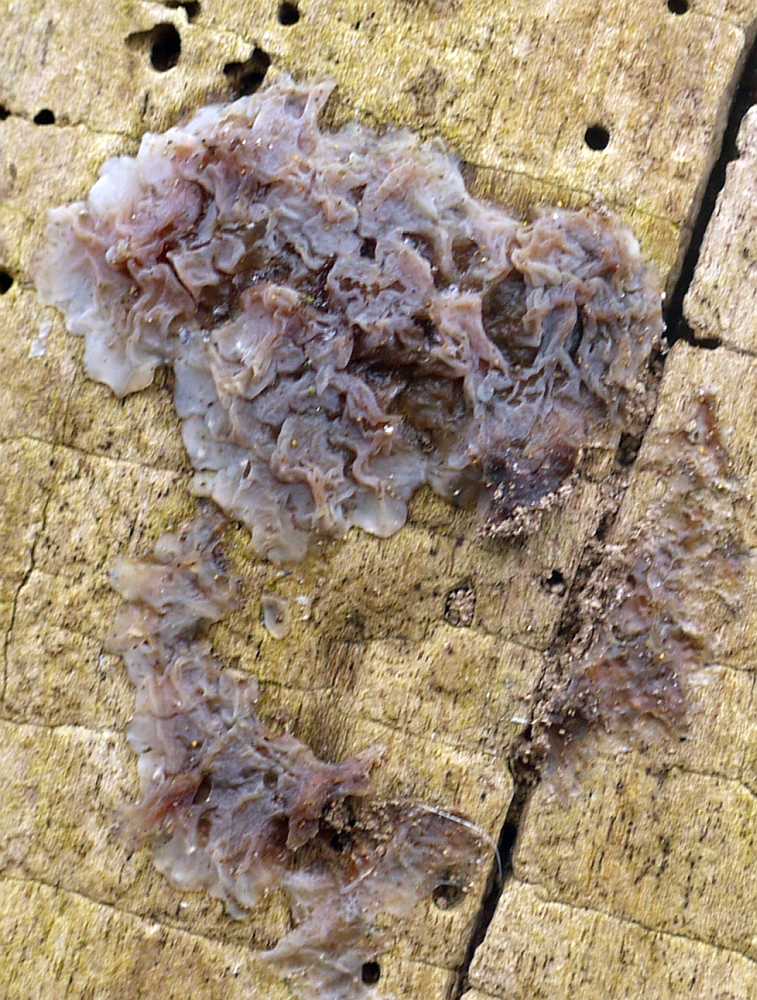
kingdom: Fungi
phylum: Basidiomycota
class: Agaricomycetes
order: Auriculariales
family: Auriculariaceae
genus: Exidia
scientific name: Exidia thuretiana
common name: hvidlig bævretop
